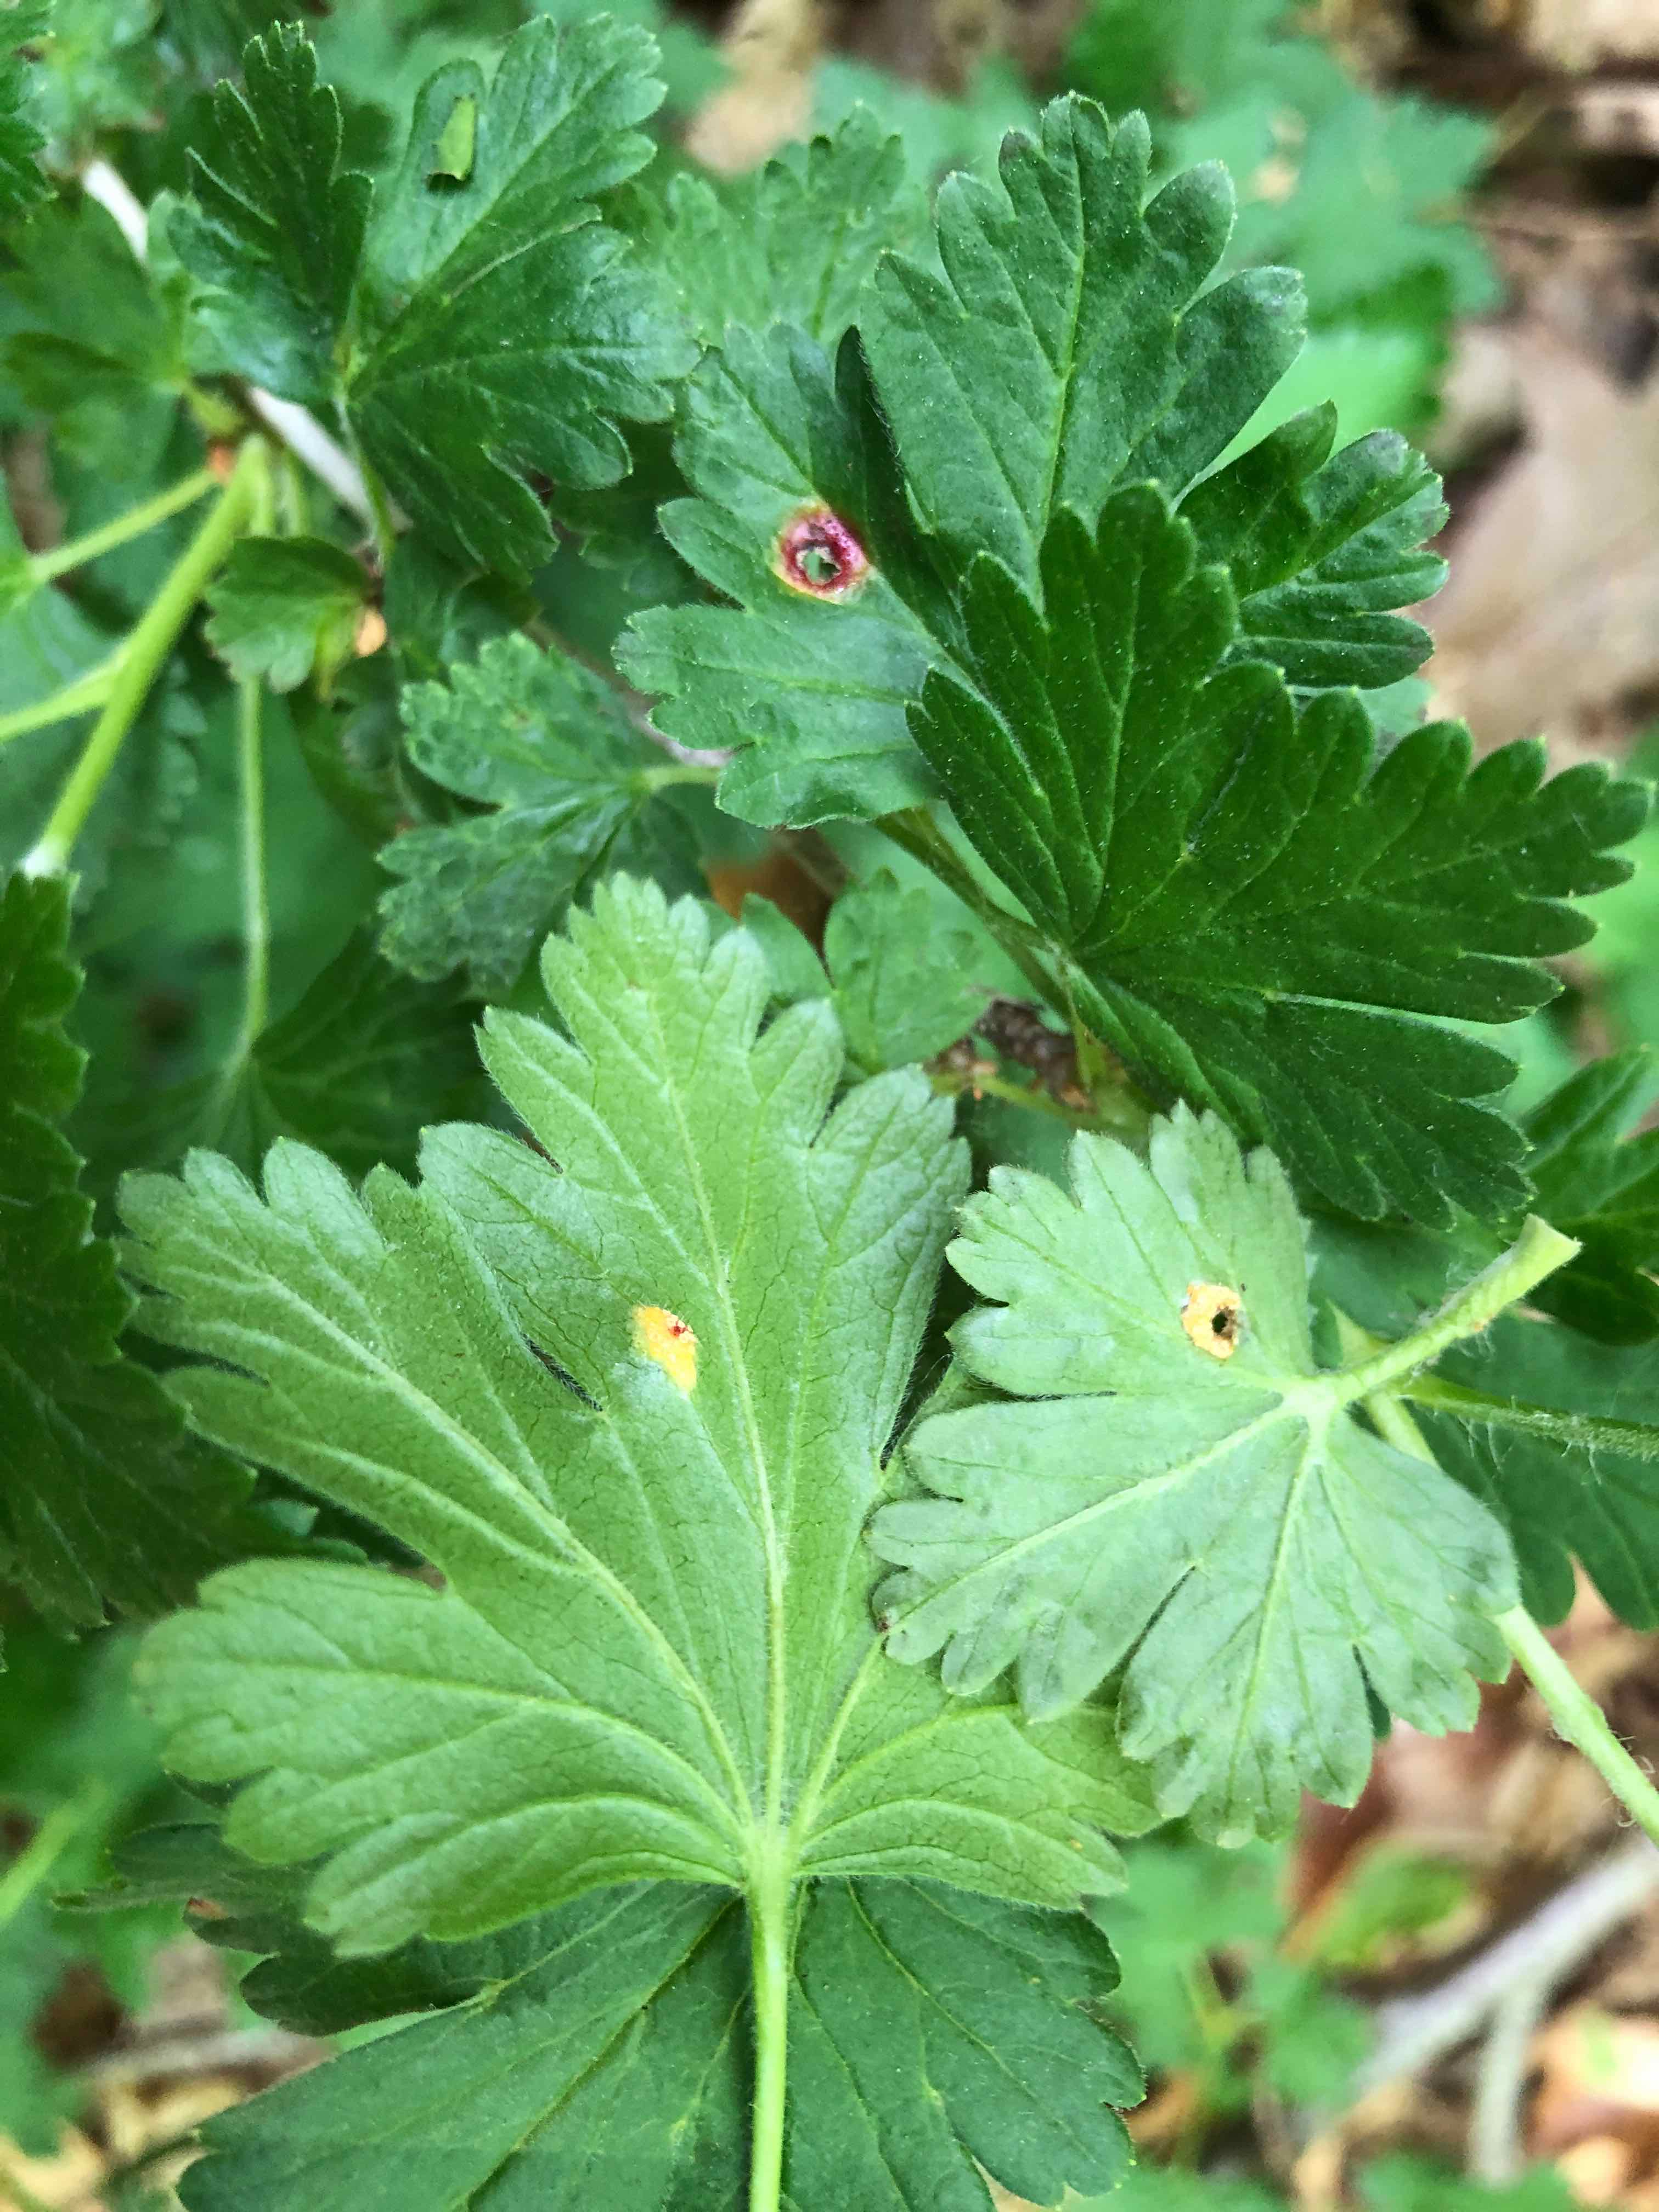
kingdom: Fungi
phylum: Basidiomycota
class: Pucciniomycetes
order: Pucciniales
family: Pucciniaceae
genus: Puccinia
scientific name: Puccinia caricina
